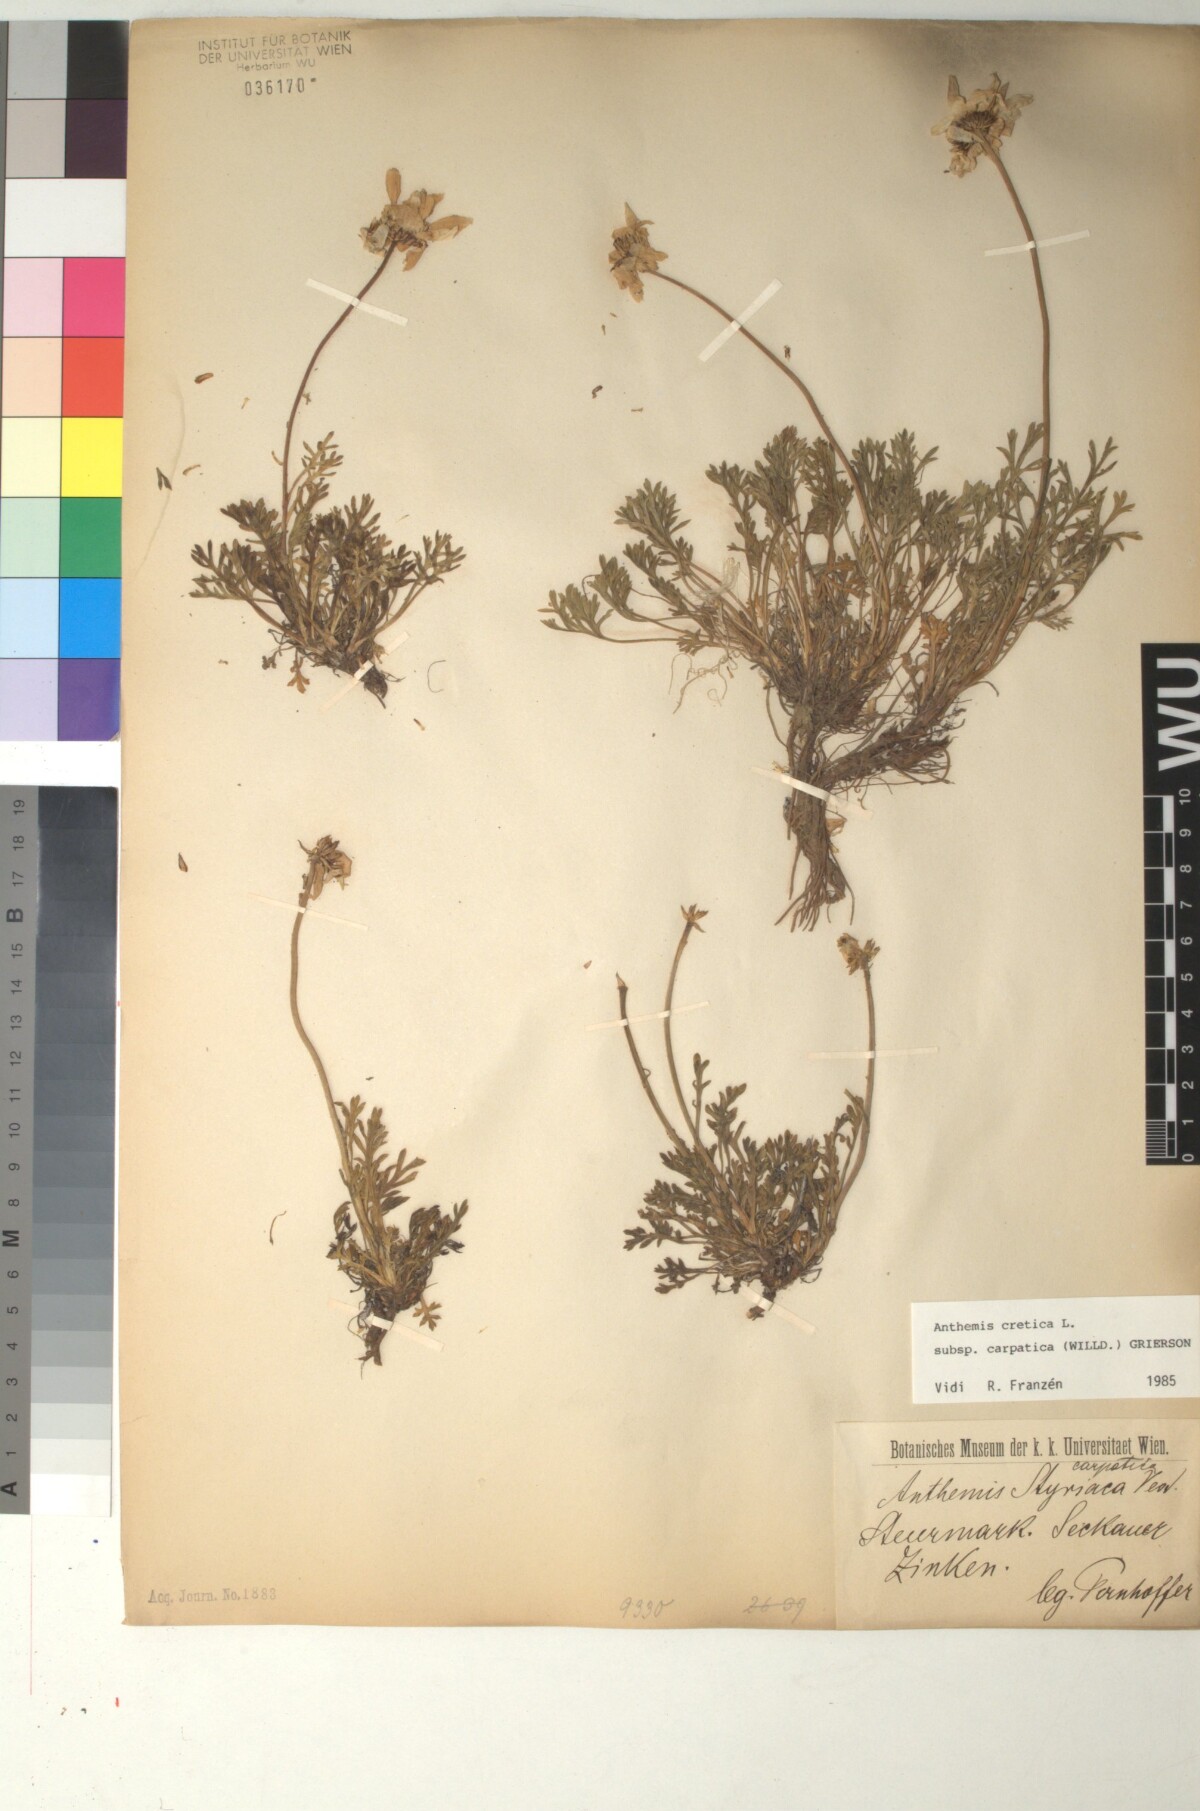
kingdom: Plantae
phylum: Tracheophyta
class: Magnoliopsida
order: Asterales
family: Asteraceae
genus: Anthemis
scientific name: Anthemis cretica
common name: Mountain dog-daisy
